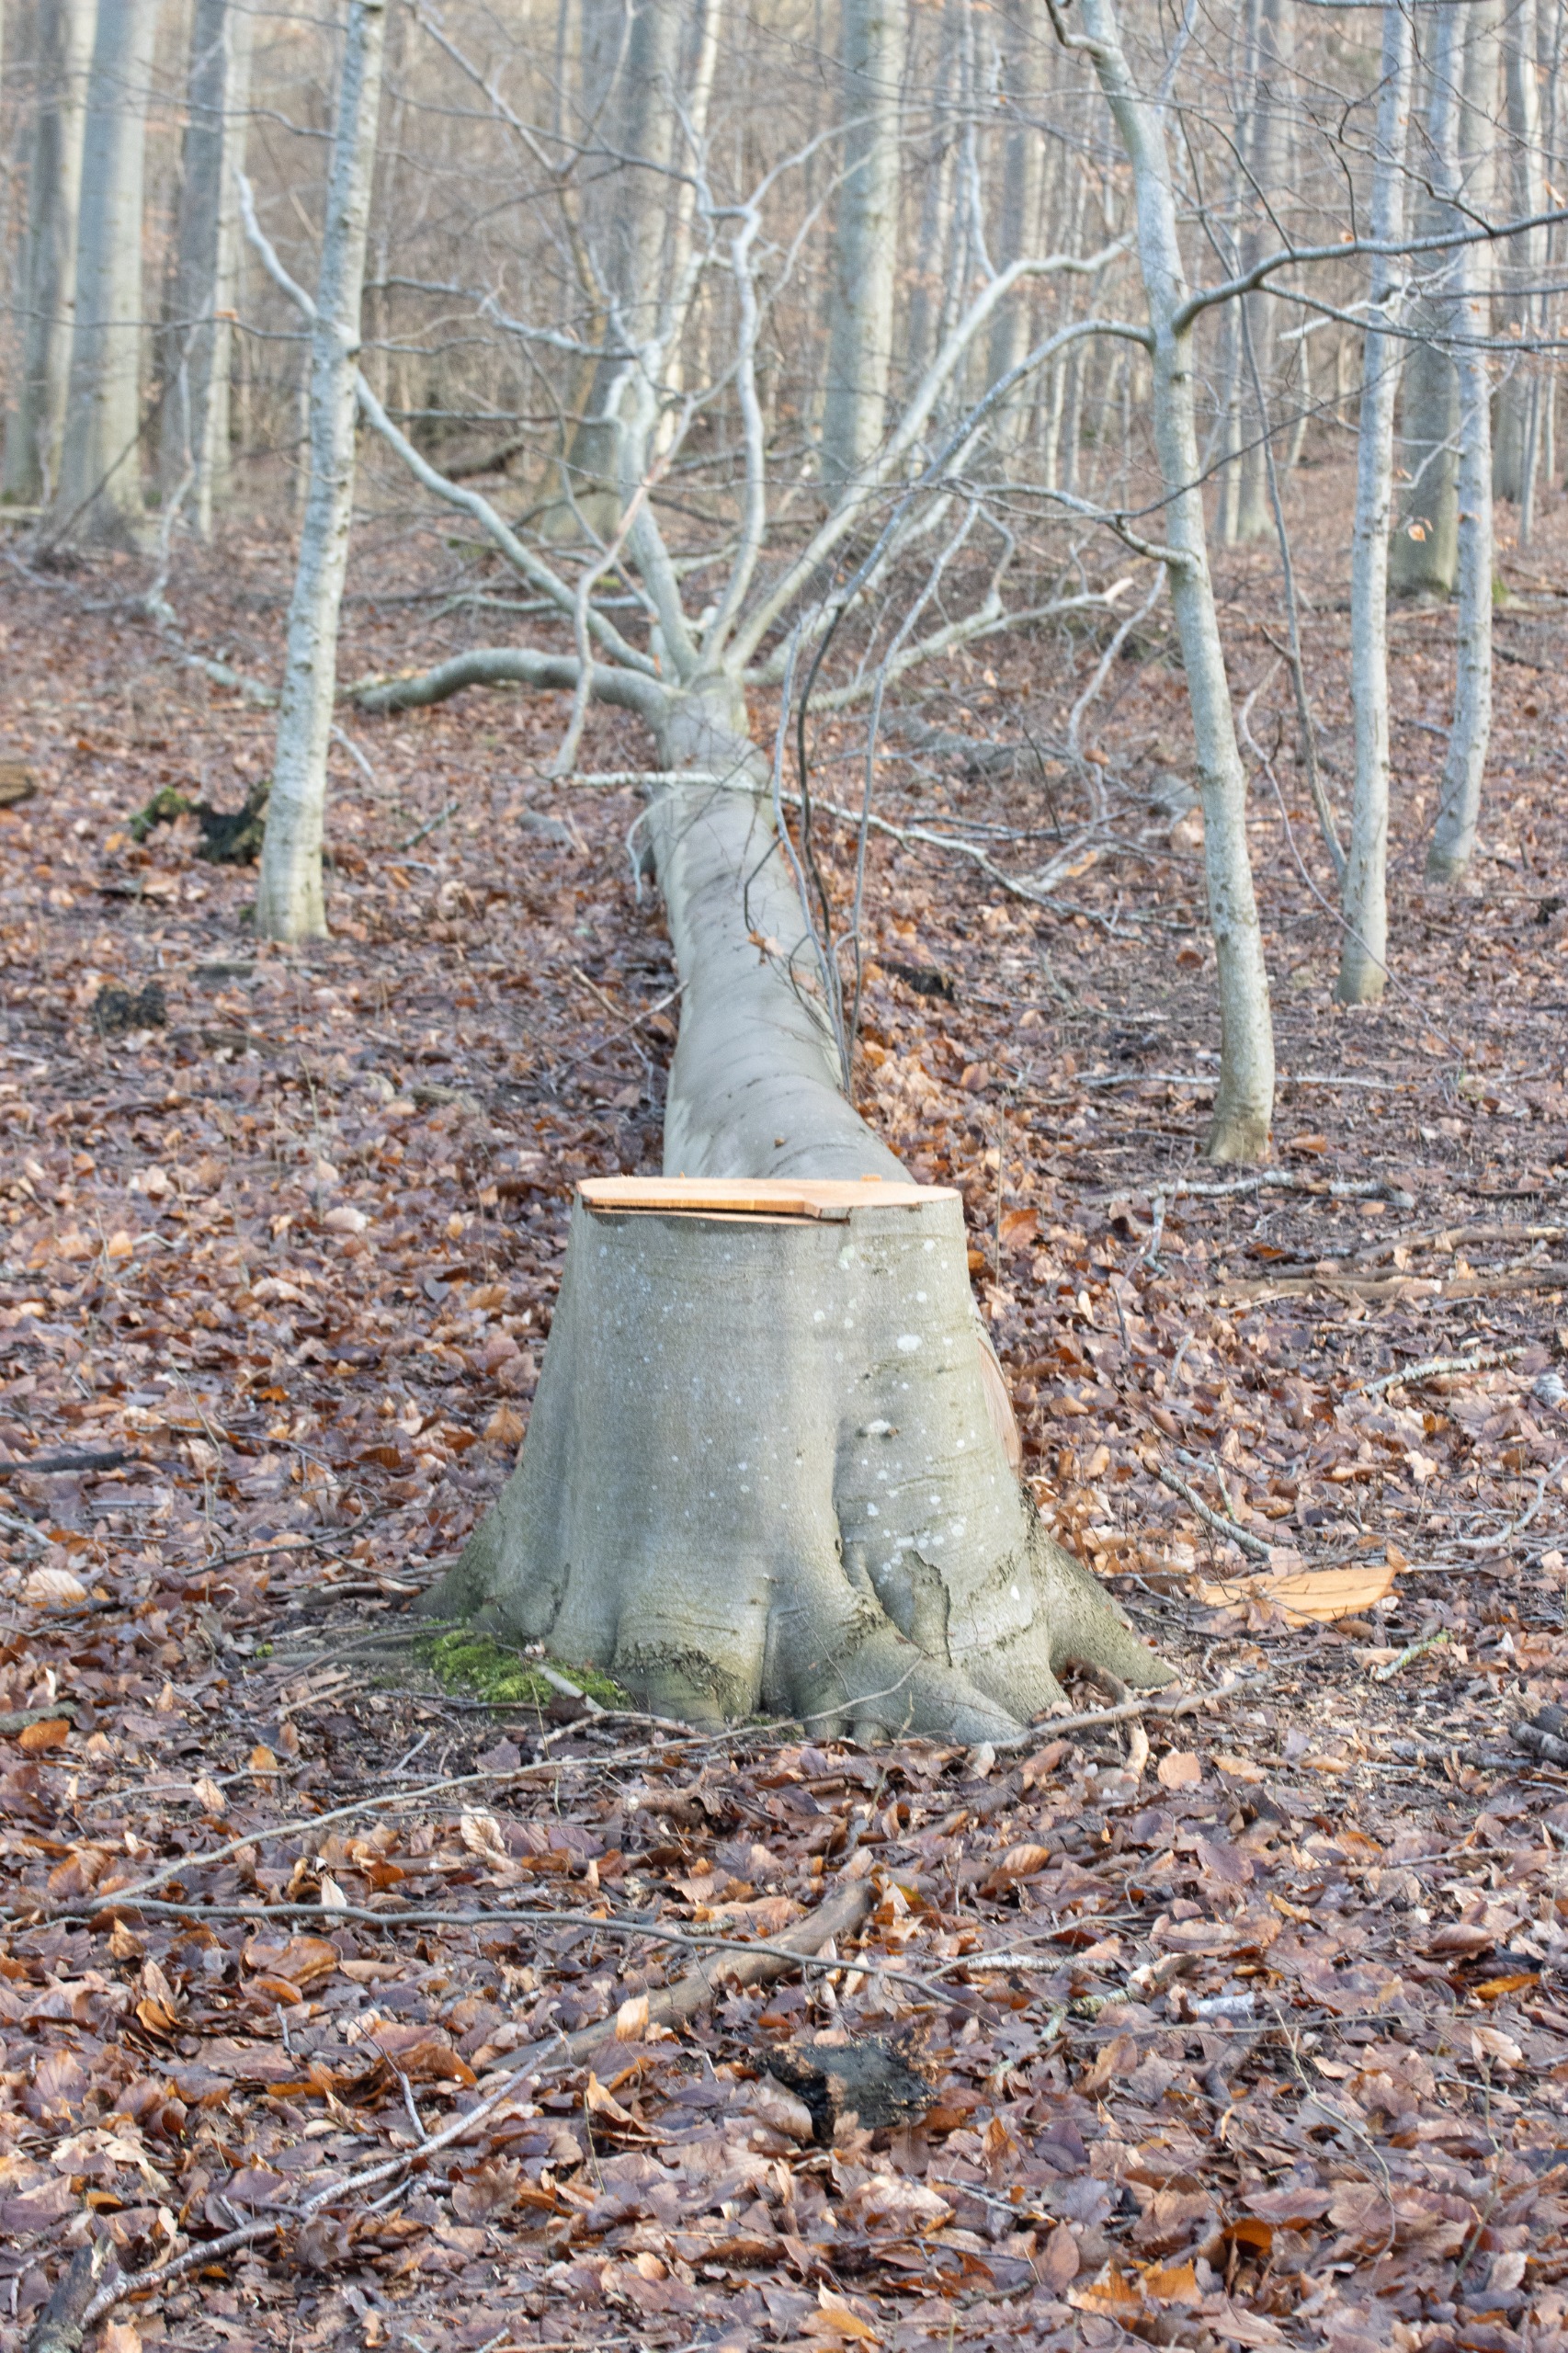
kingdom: Plantae
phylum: Tracheophyta
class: Magnoliopsida
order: Sapindales
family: Sapindaceae
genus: Acer
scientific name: Acer pseudoplatanus
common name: Ahorn
